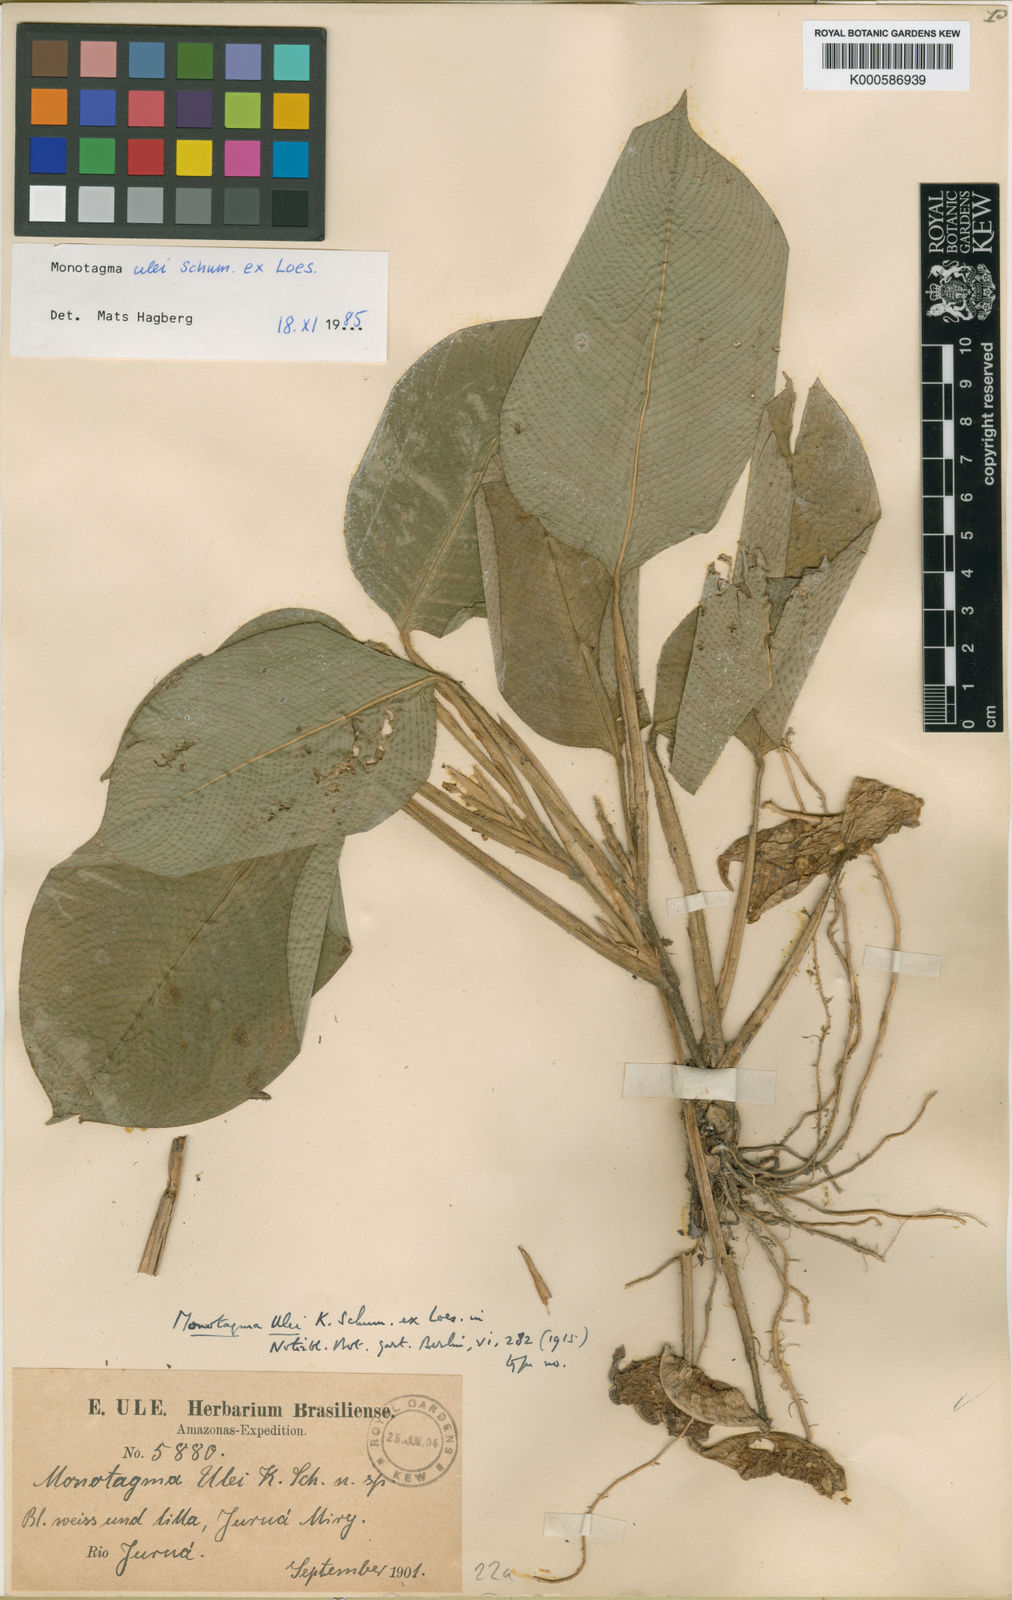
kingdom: Plantae
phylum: Tracheophyta
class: Liliopsida
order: Zingiberales
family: Marantaceae
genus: Monotagma
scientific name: Monotagma ulei
